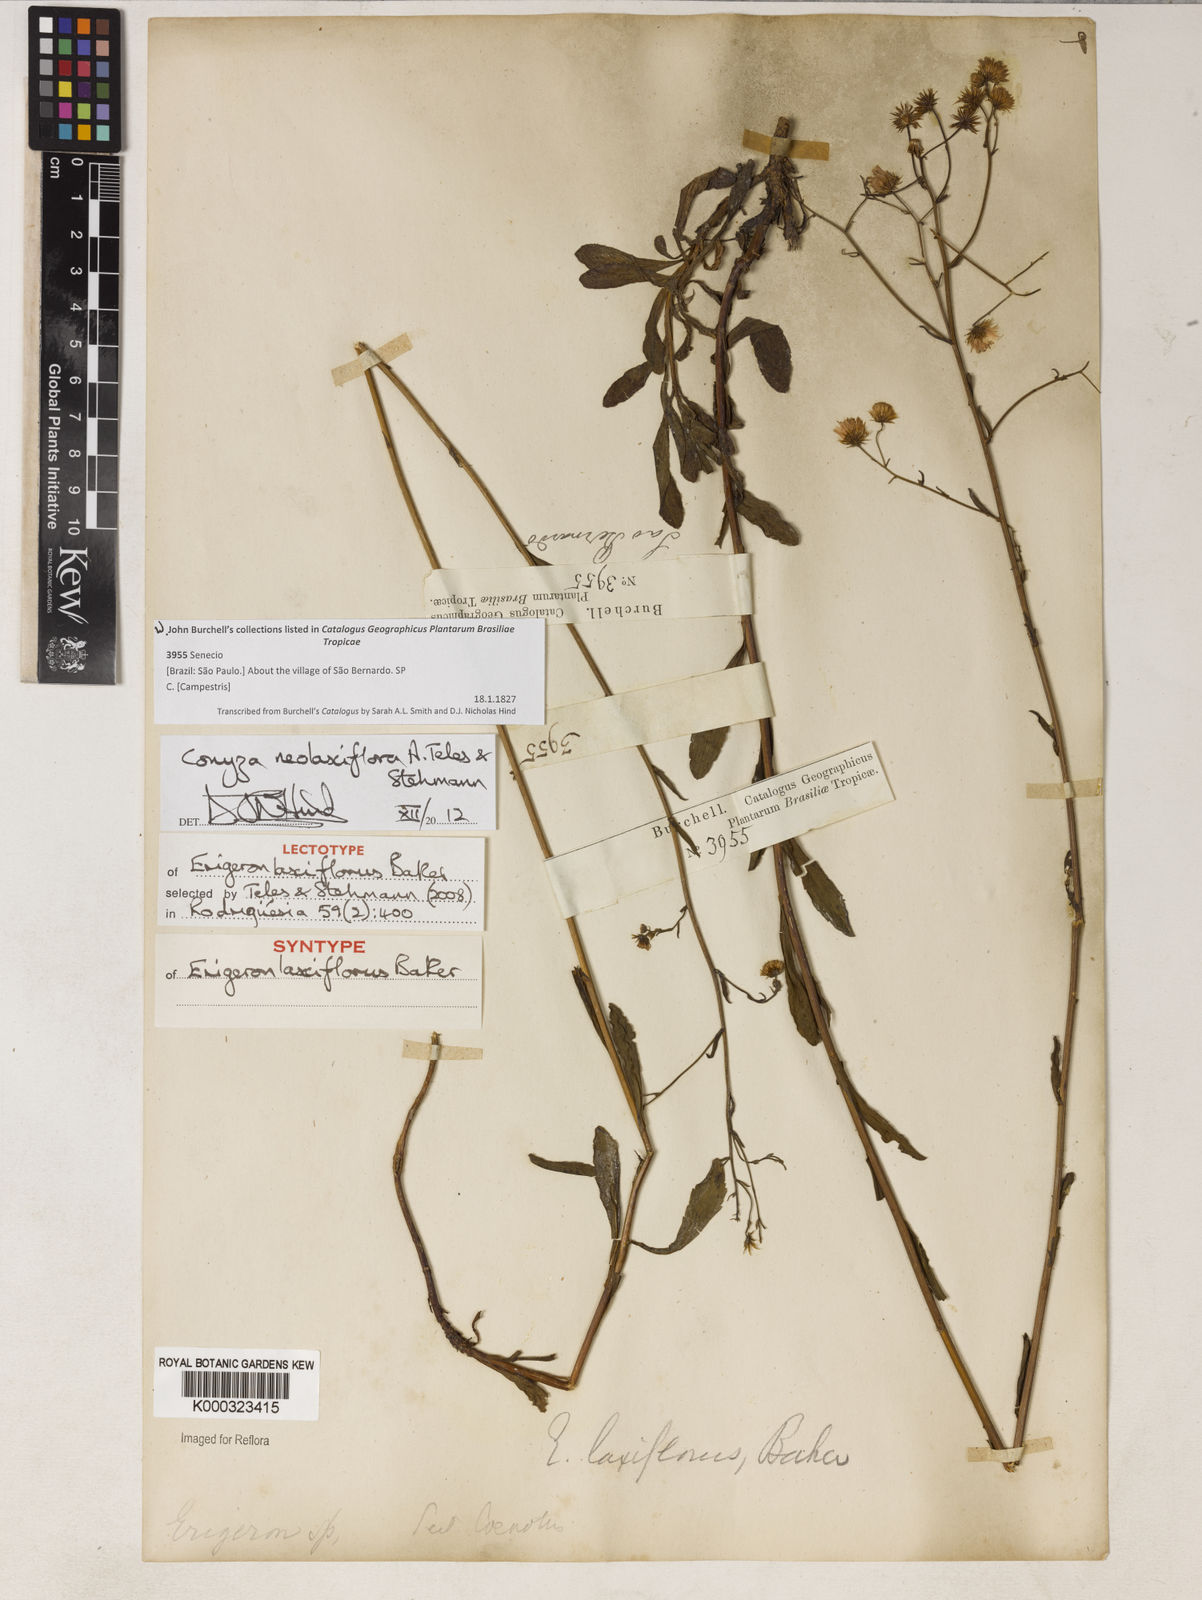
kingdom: Plantae
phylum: Tracheophyta
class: Magnoliopsida
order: Asterales
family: Asteraceae
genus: Erigeron
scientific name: Erigeron laxiflorus
